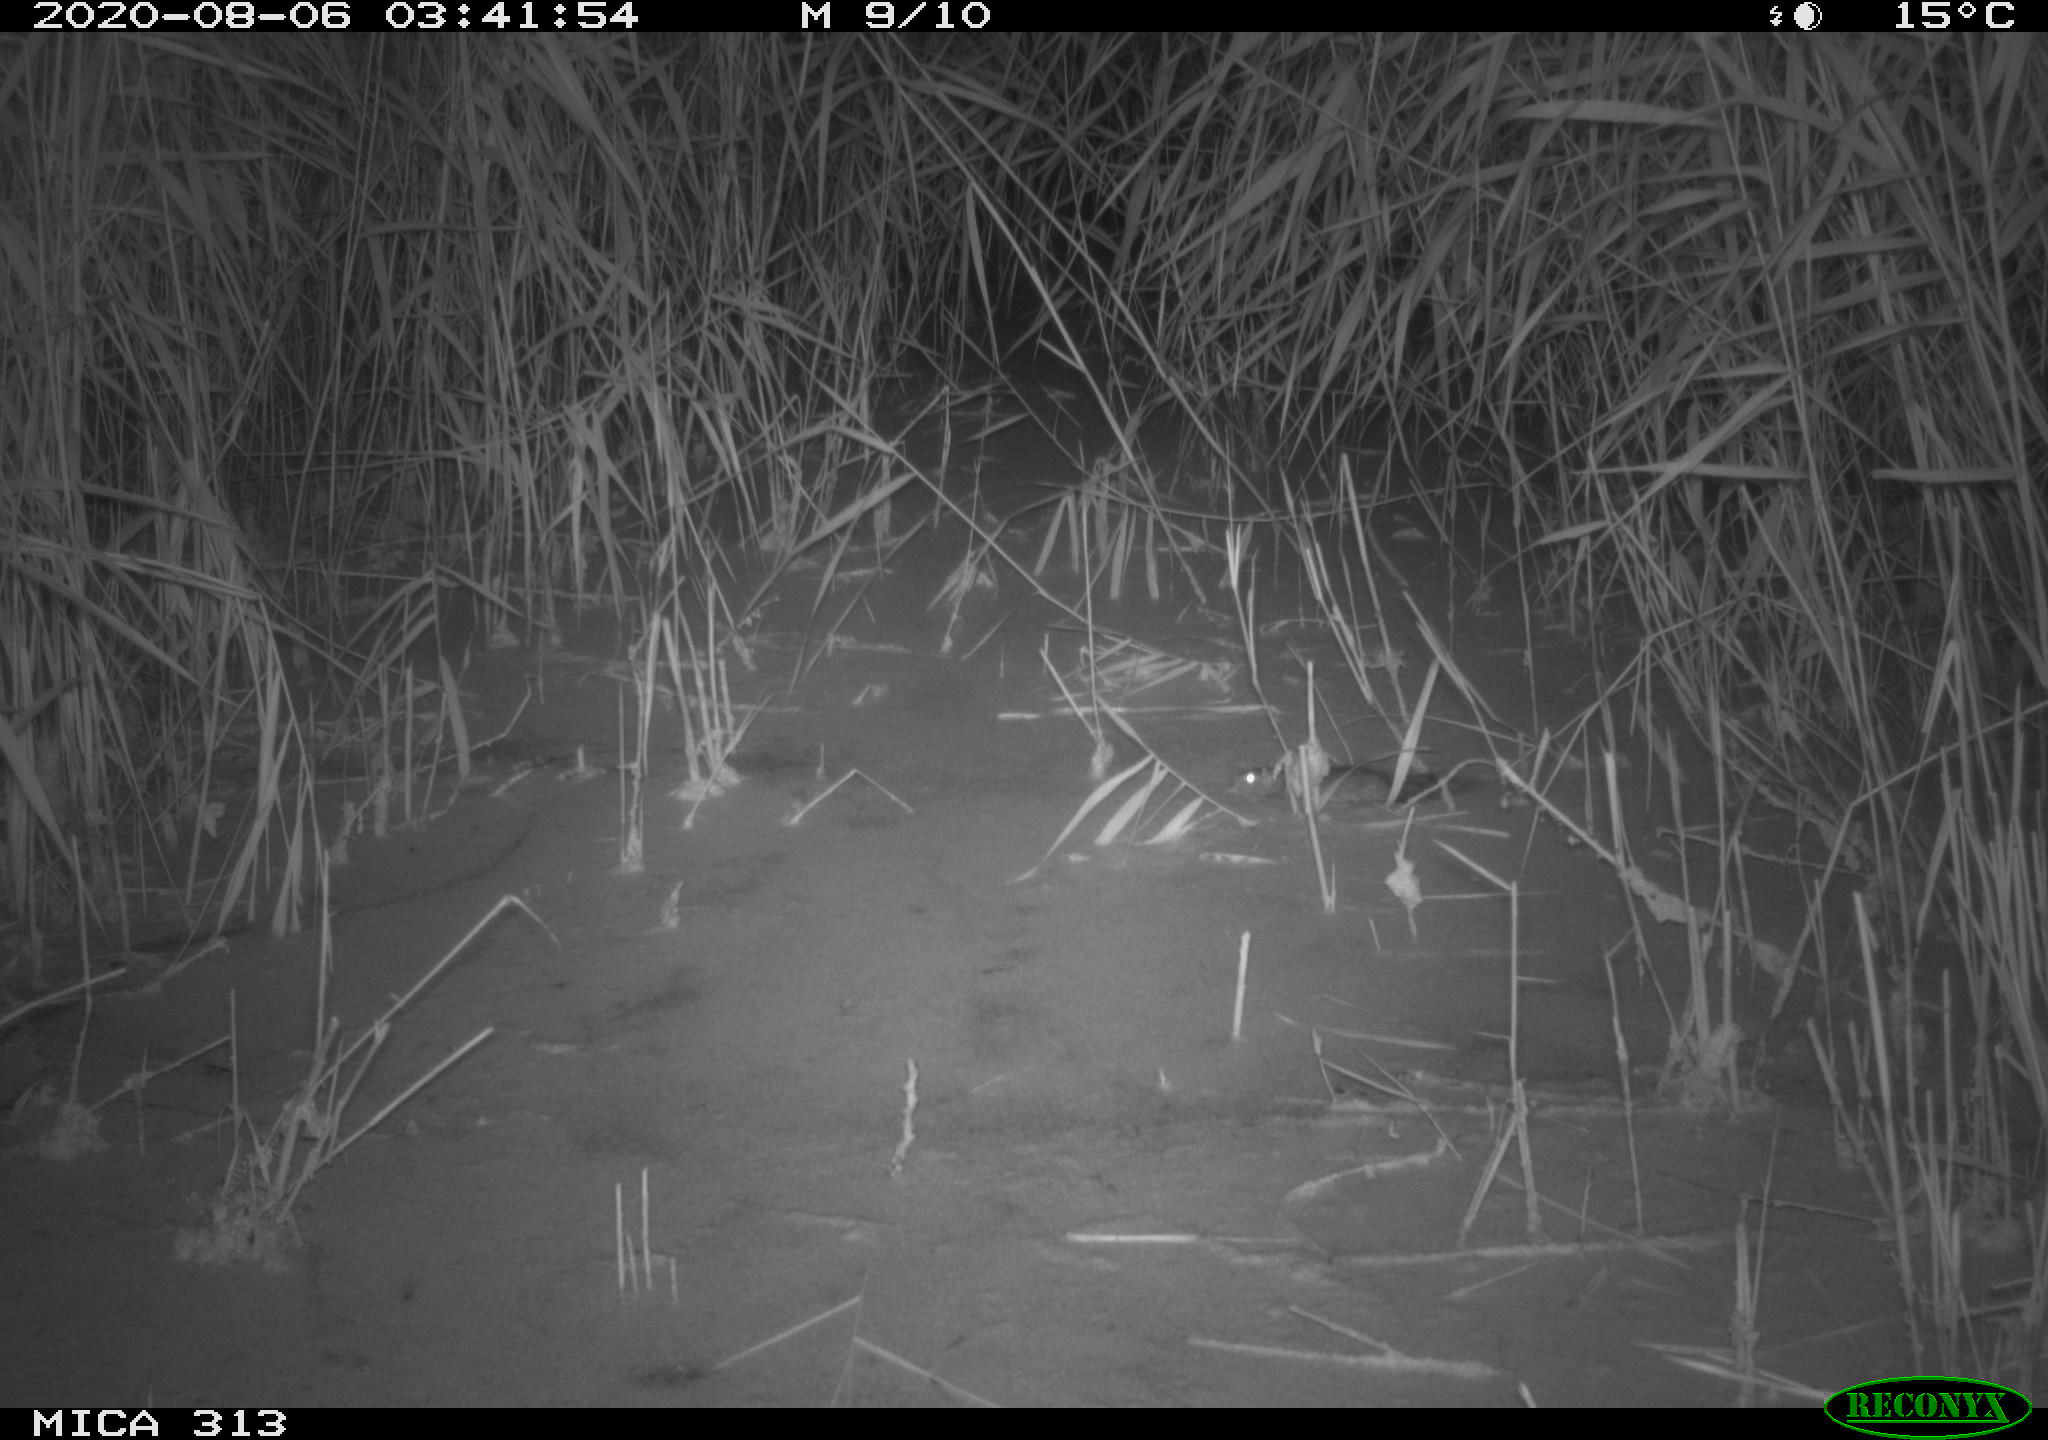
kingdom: Animalia
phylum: Chordata
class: Mammalia
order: Rodentia
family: Muridae
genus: Rattus
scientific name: Rattus norvegicus
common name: Brown rat
